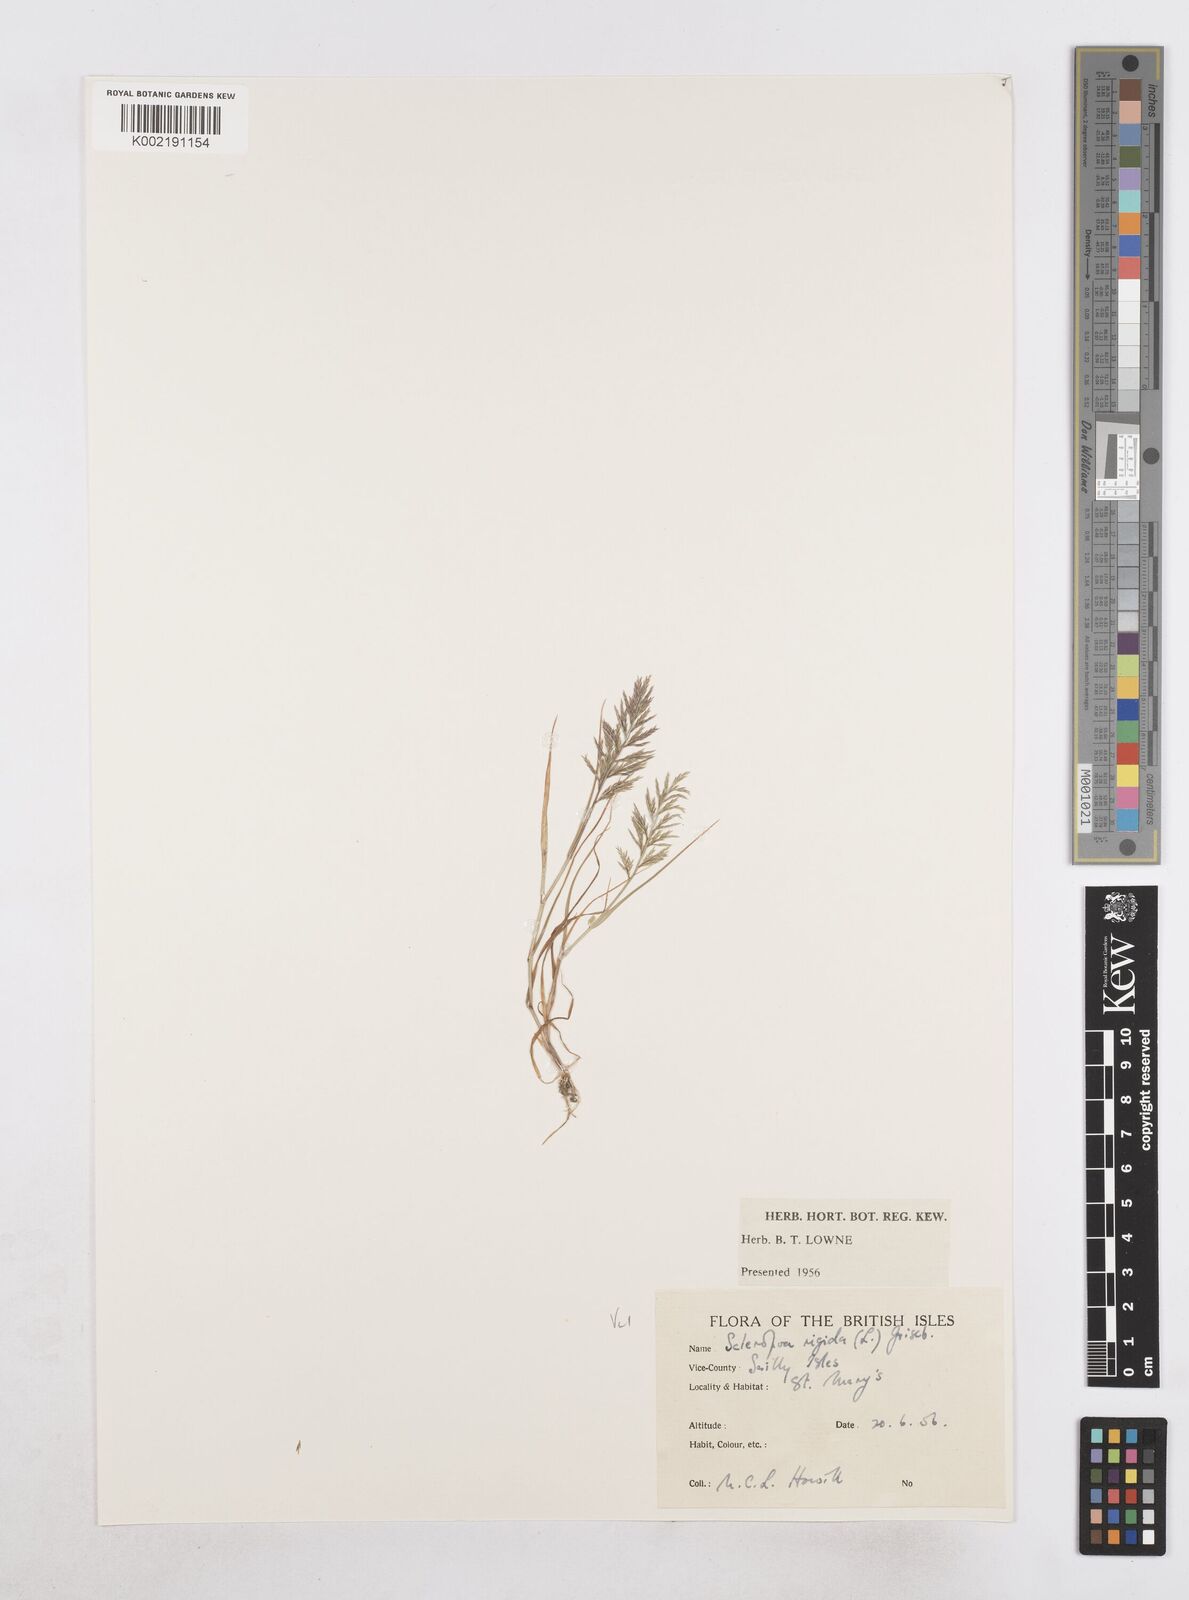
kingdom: Plantae
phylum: Tracheophyta
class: Liliopsida
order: Poales
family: Poaceae
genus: Catapodium
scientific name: Catapodium rigidum
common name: Fern-grass
